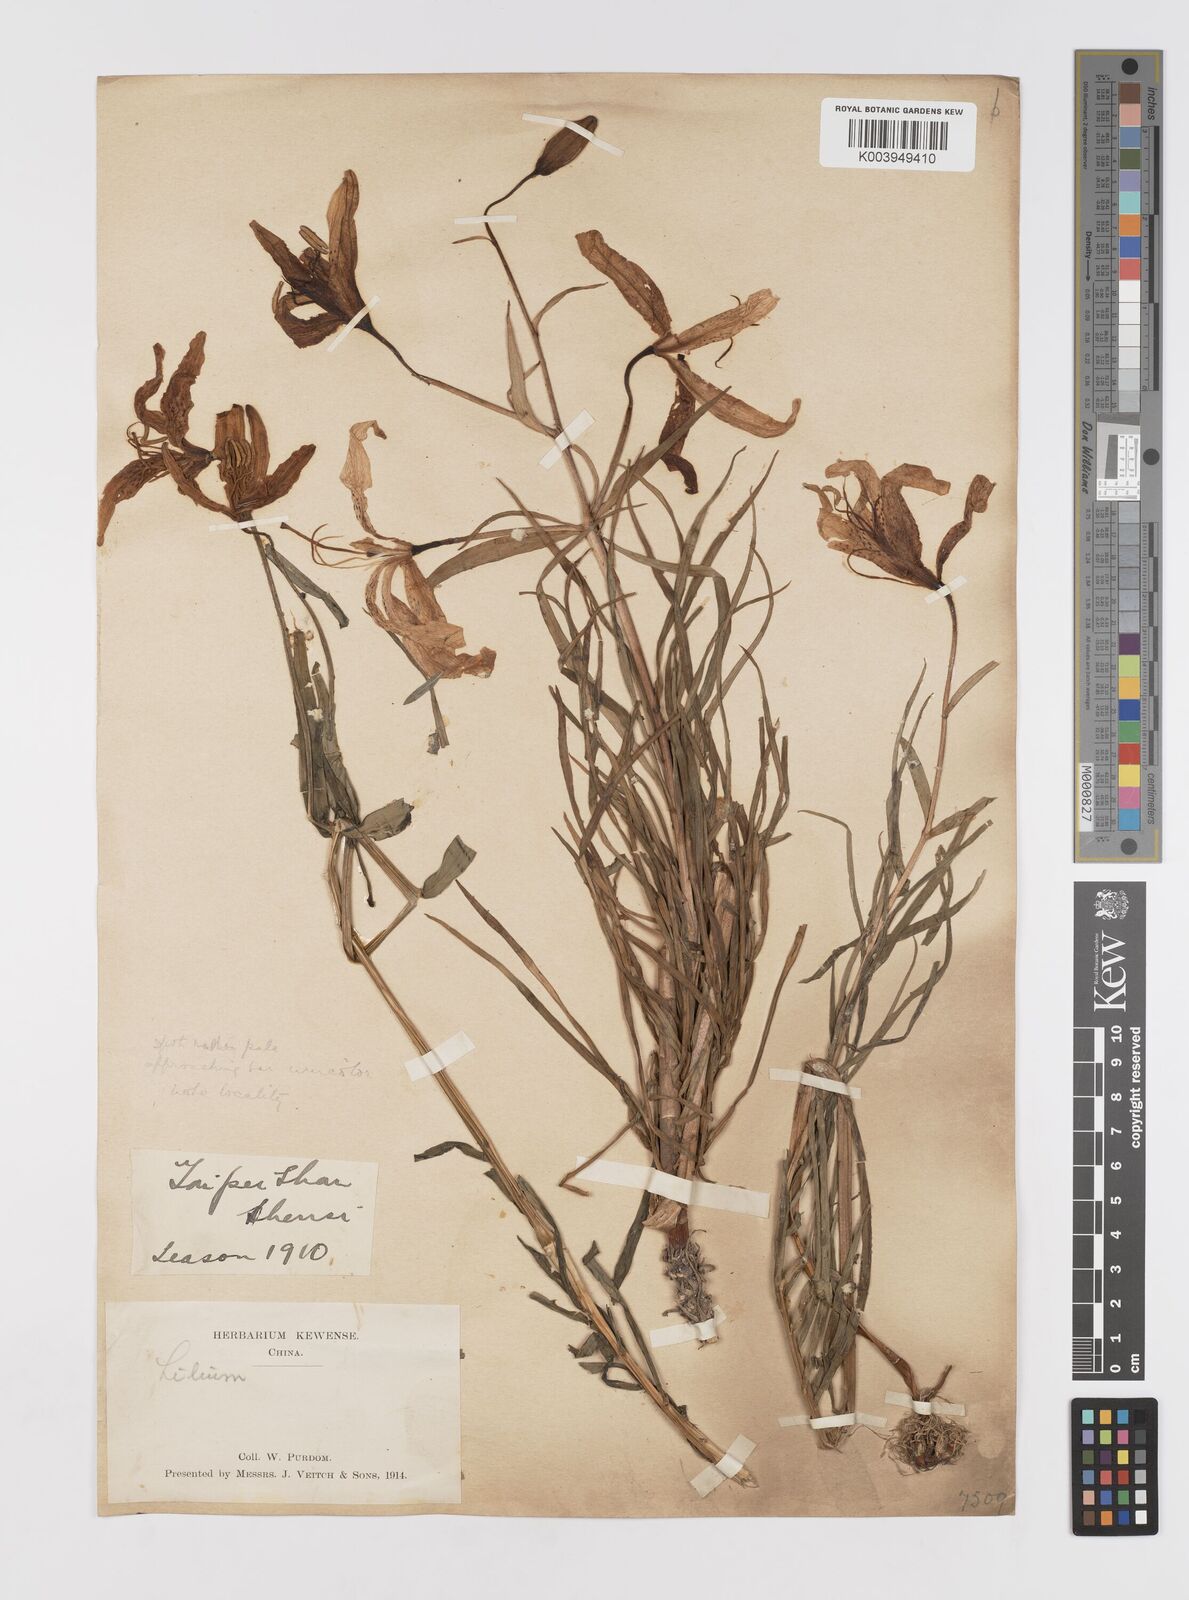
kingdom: Plantae
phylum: Tracheophyta
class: Liliopsida
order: Liliales
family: Liliaceae
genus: Lilium
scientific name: Lilium davidii
